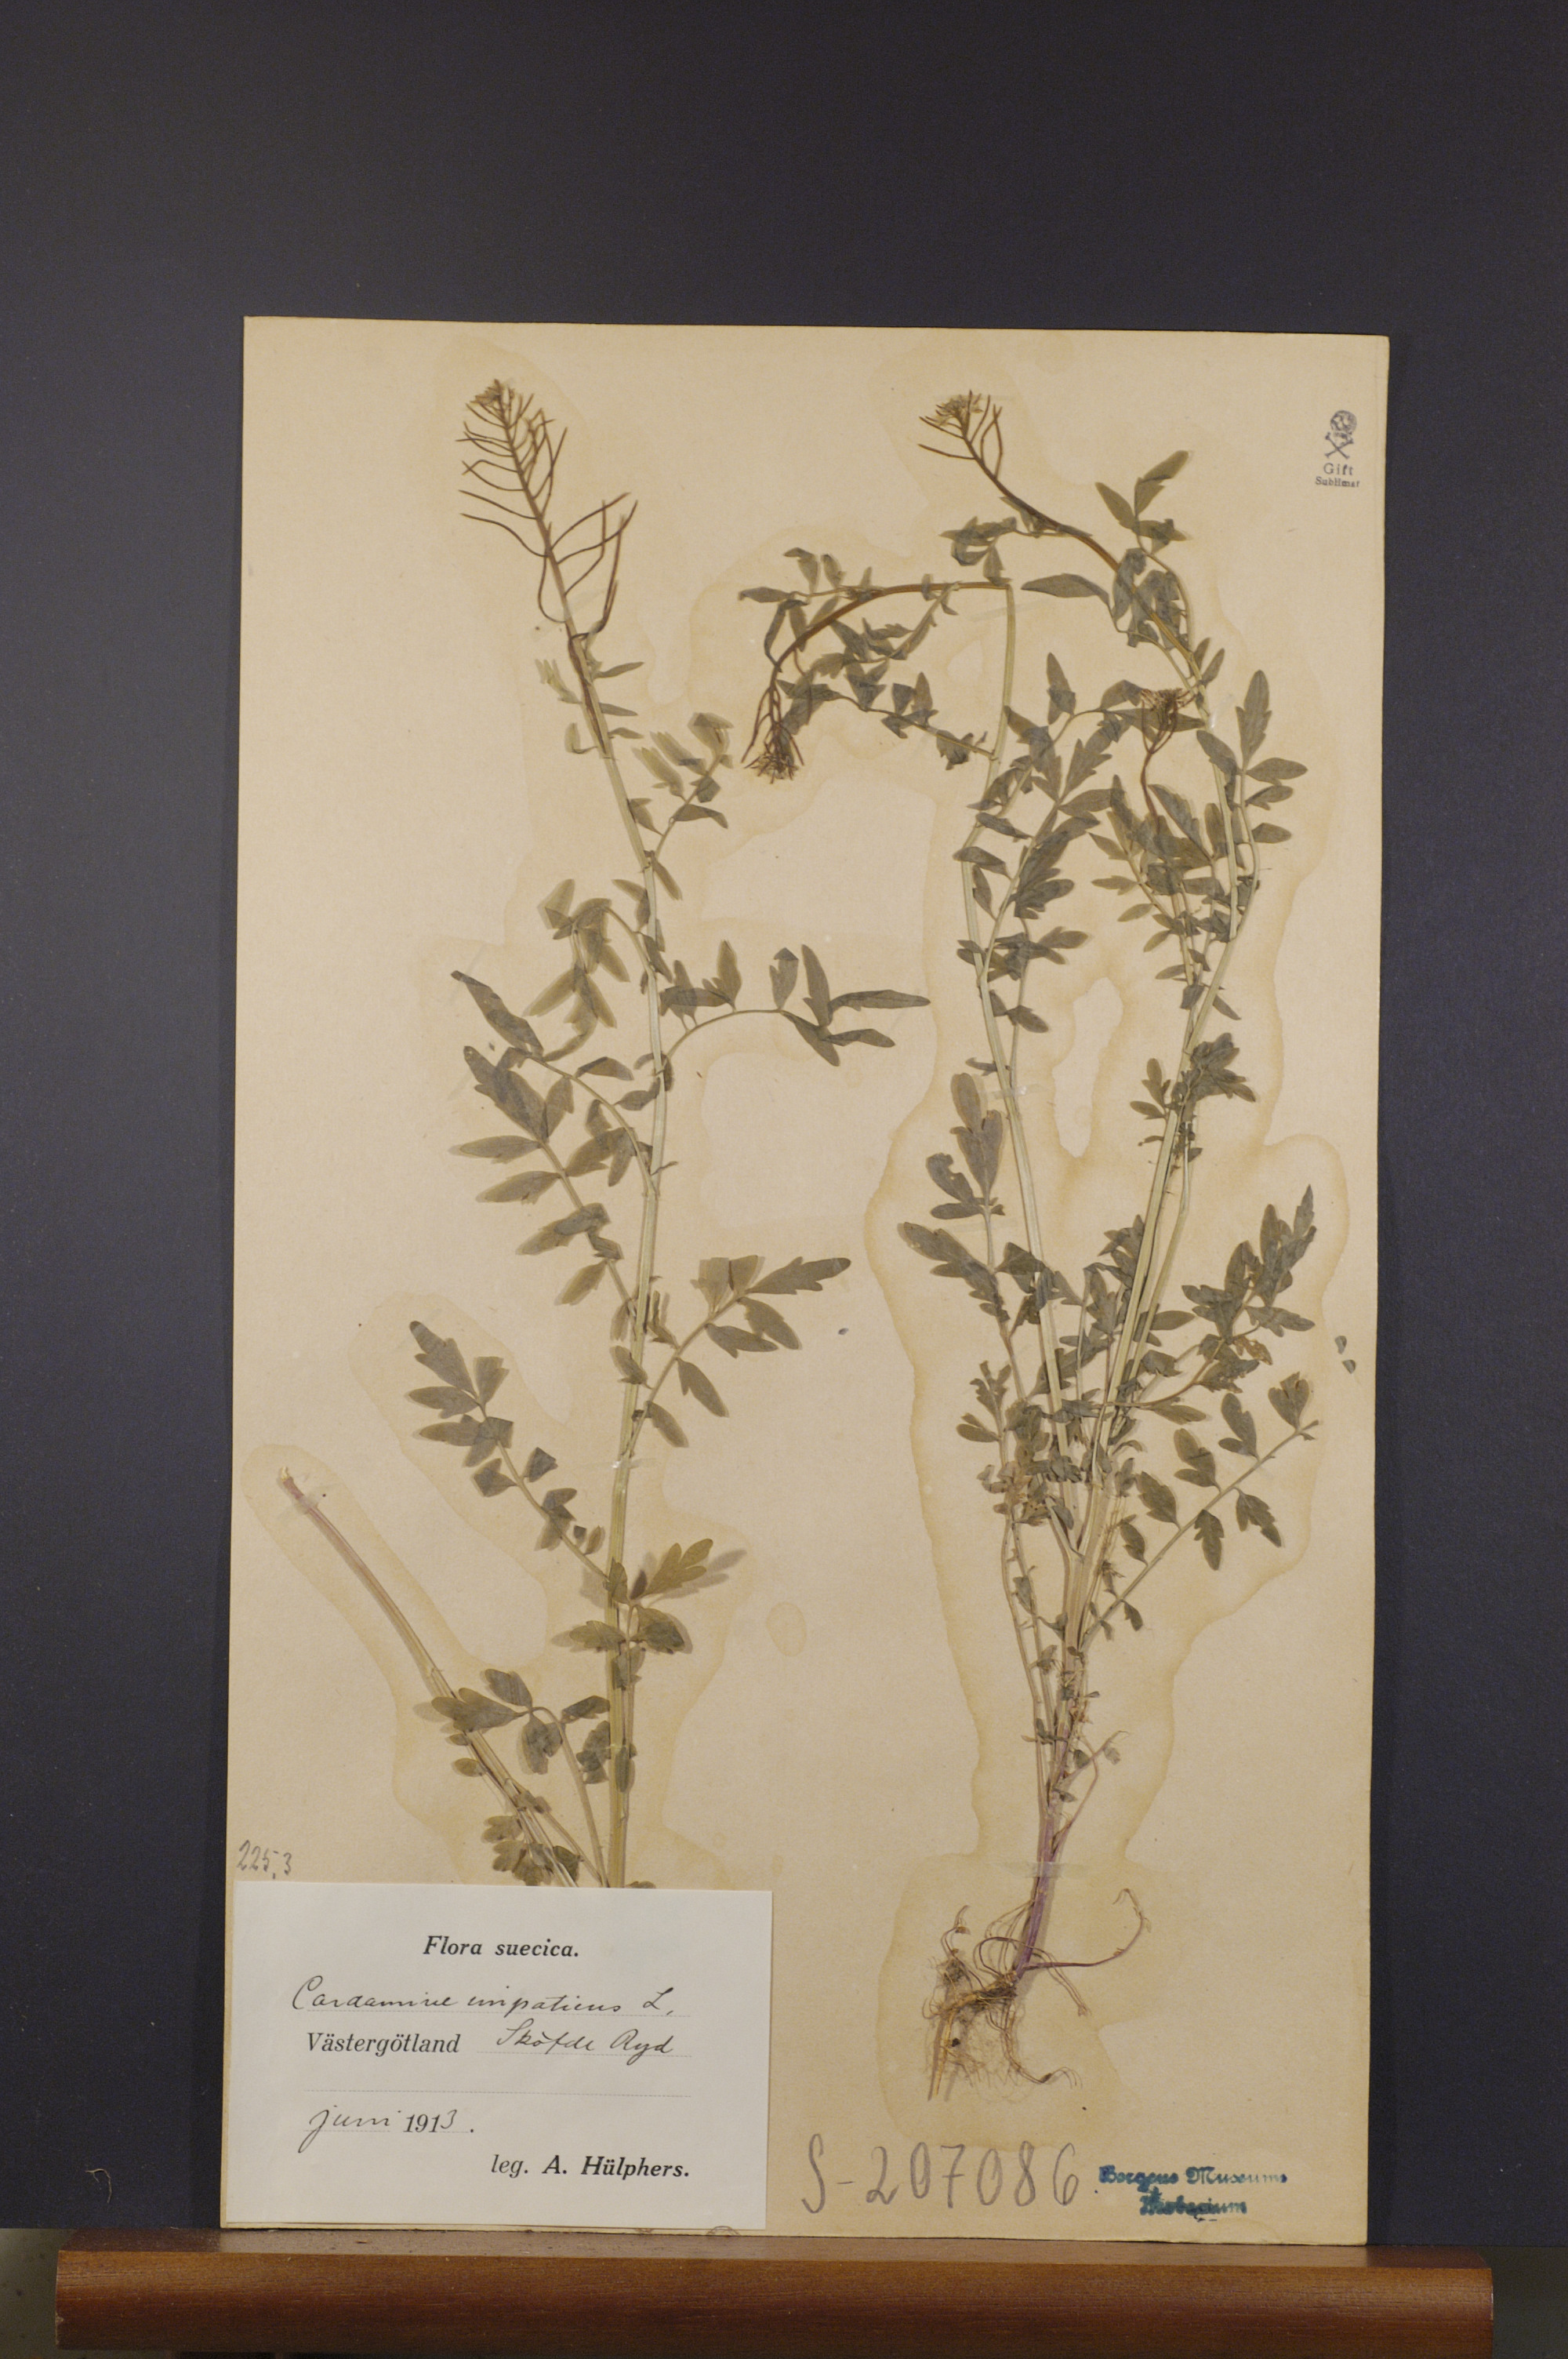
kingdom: Plantae
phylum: Tracheophyta
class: Magnoliopsida
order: Brassicales
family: Brassicaceae
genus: Cardamine
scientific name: Cardamine impatiens
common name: Narrow-leaved bitter-cress
